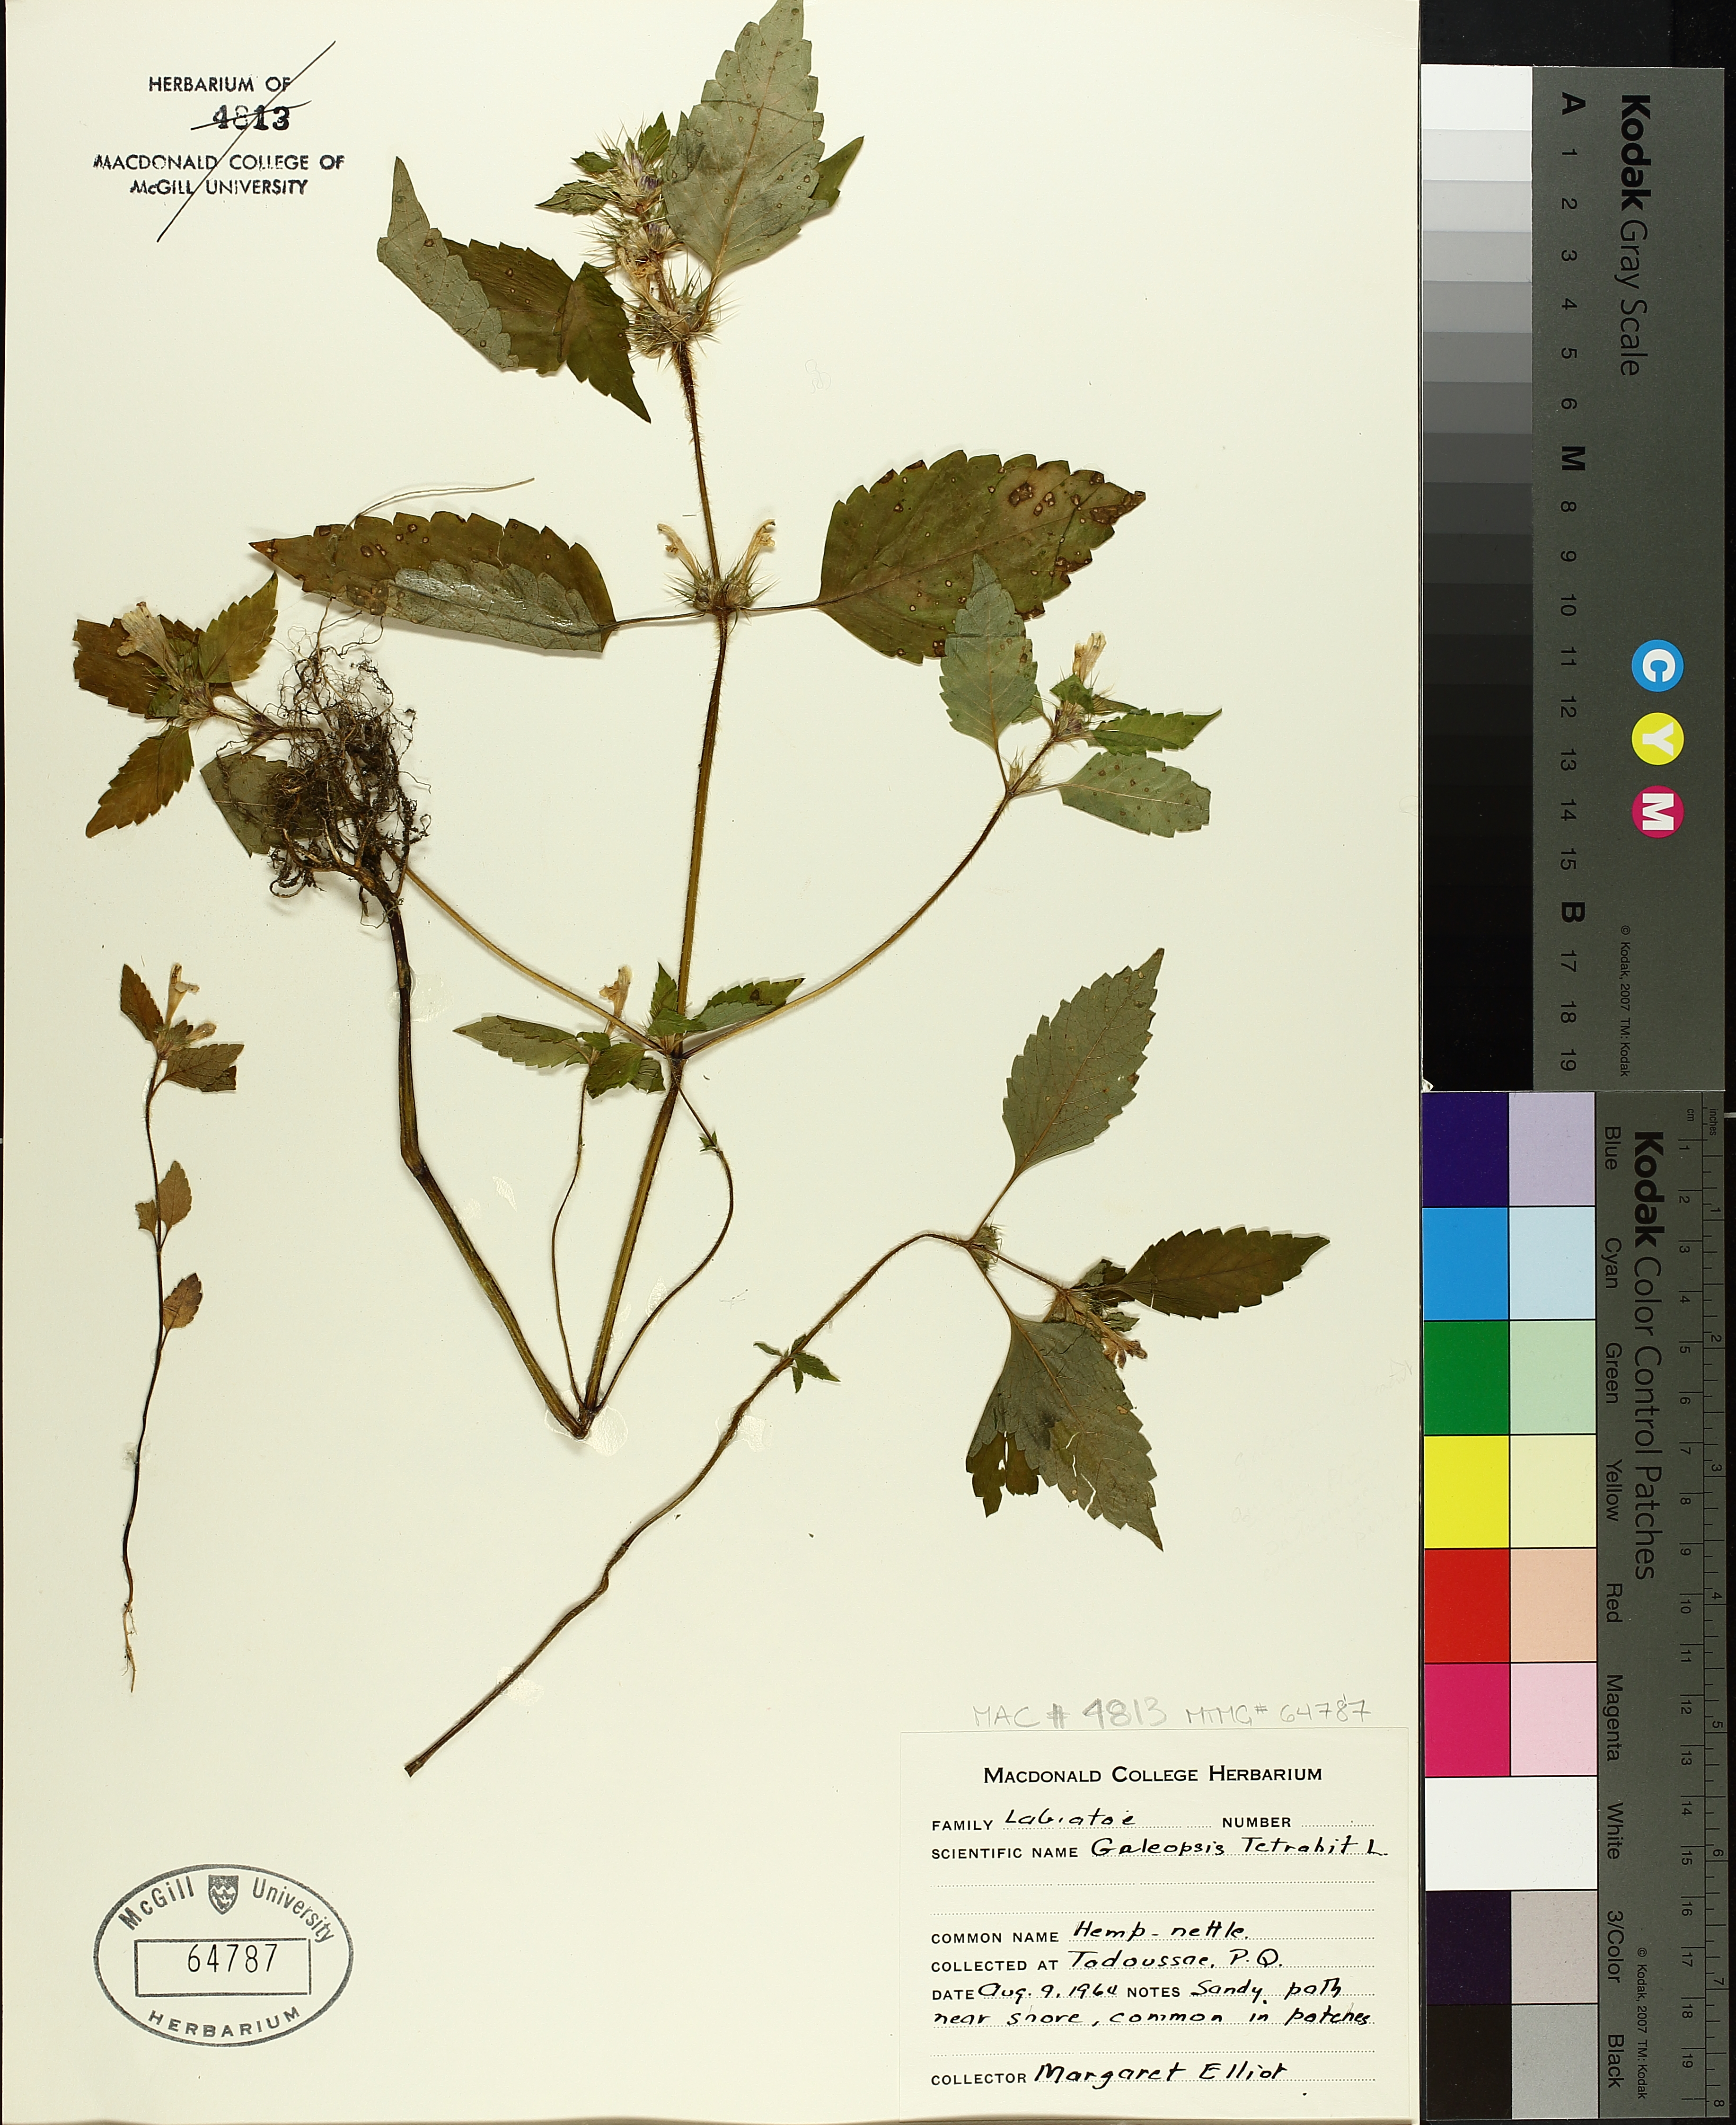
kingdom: Plantae
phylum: Tracheophyta
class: Magnoliopsida
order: Lamiales
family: Lamiaceae
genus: Galeopsis
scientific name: Galeopsis tetrahit
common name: Common hemp-nettle
